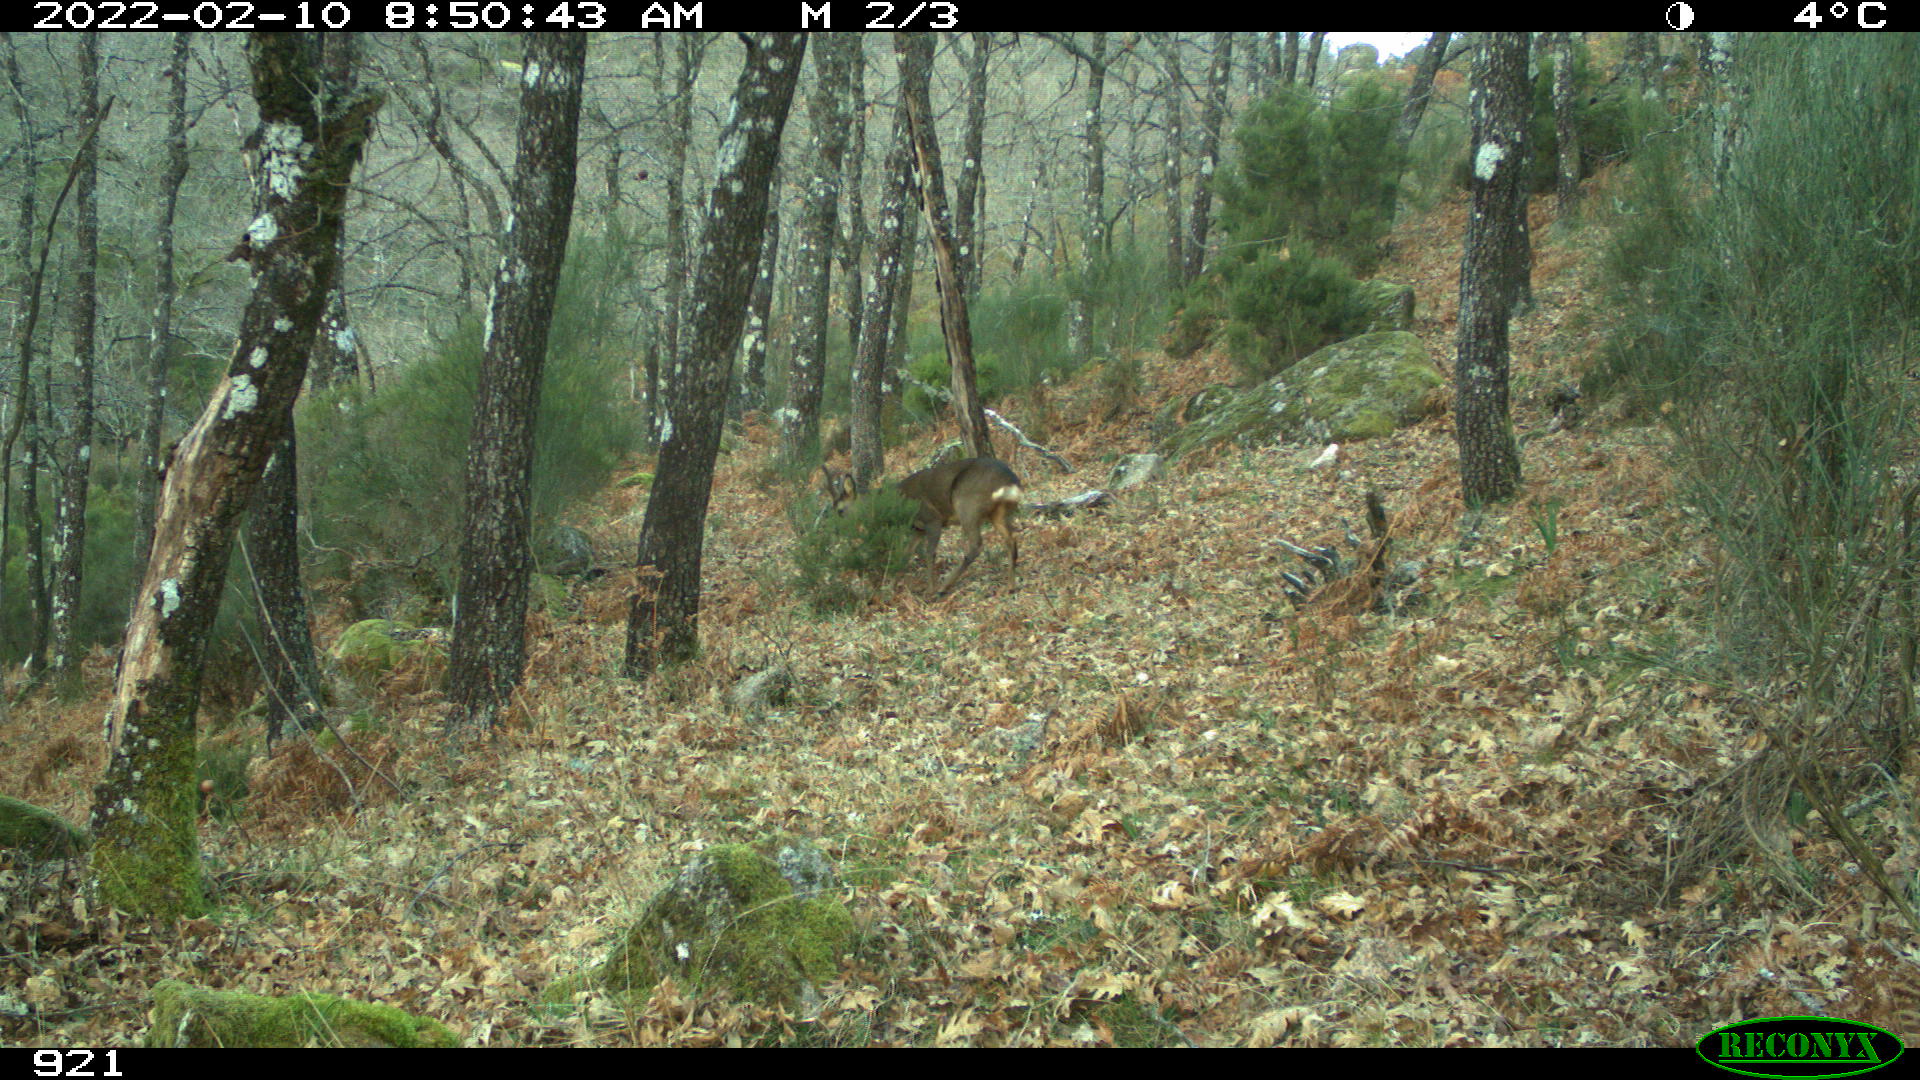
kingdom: Animalia
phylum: Chordata
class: Mammalia
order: Artiodactyla
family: Cervidae
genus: Capreolus
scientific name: Capreolus capreolus
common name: Western roe deer
